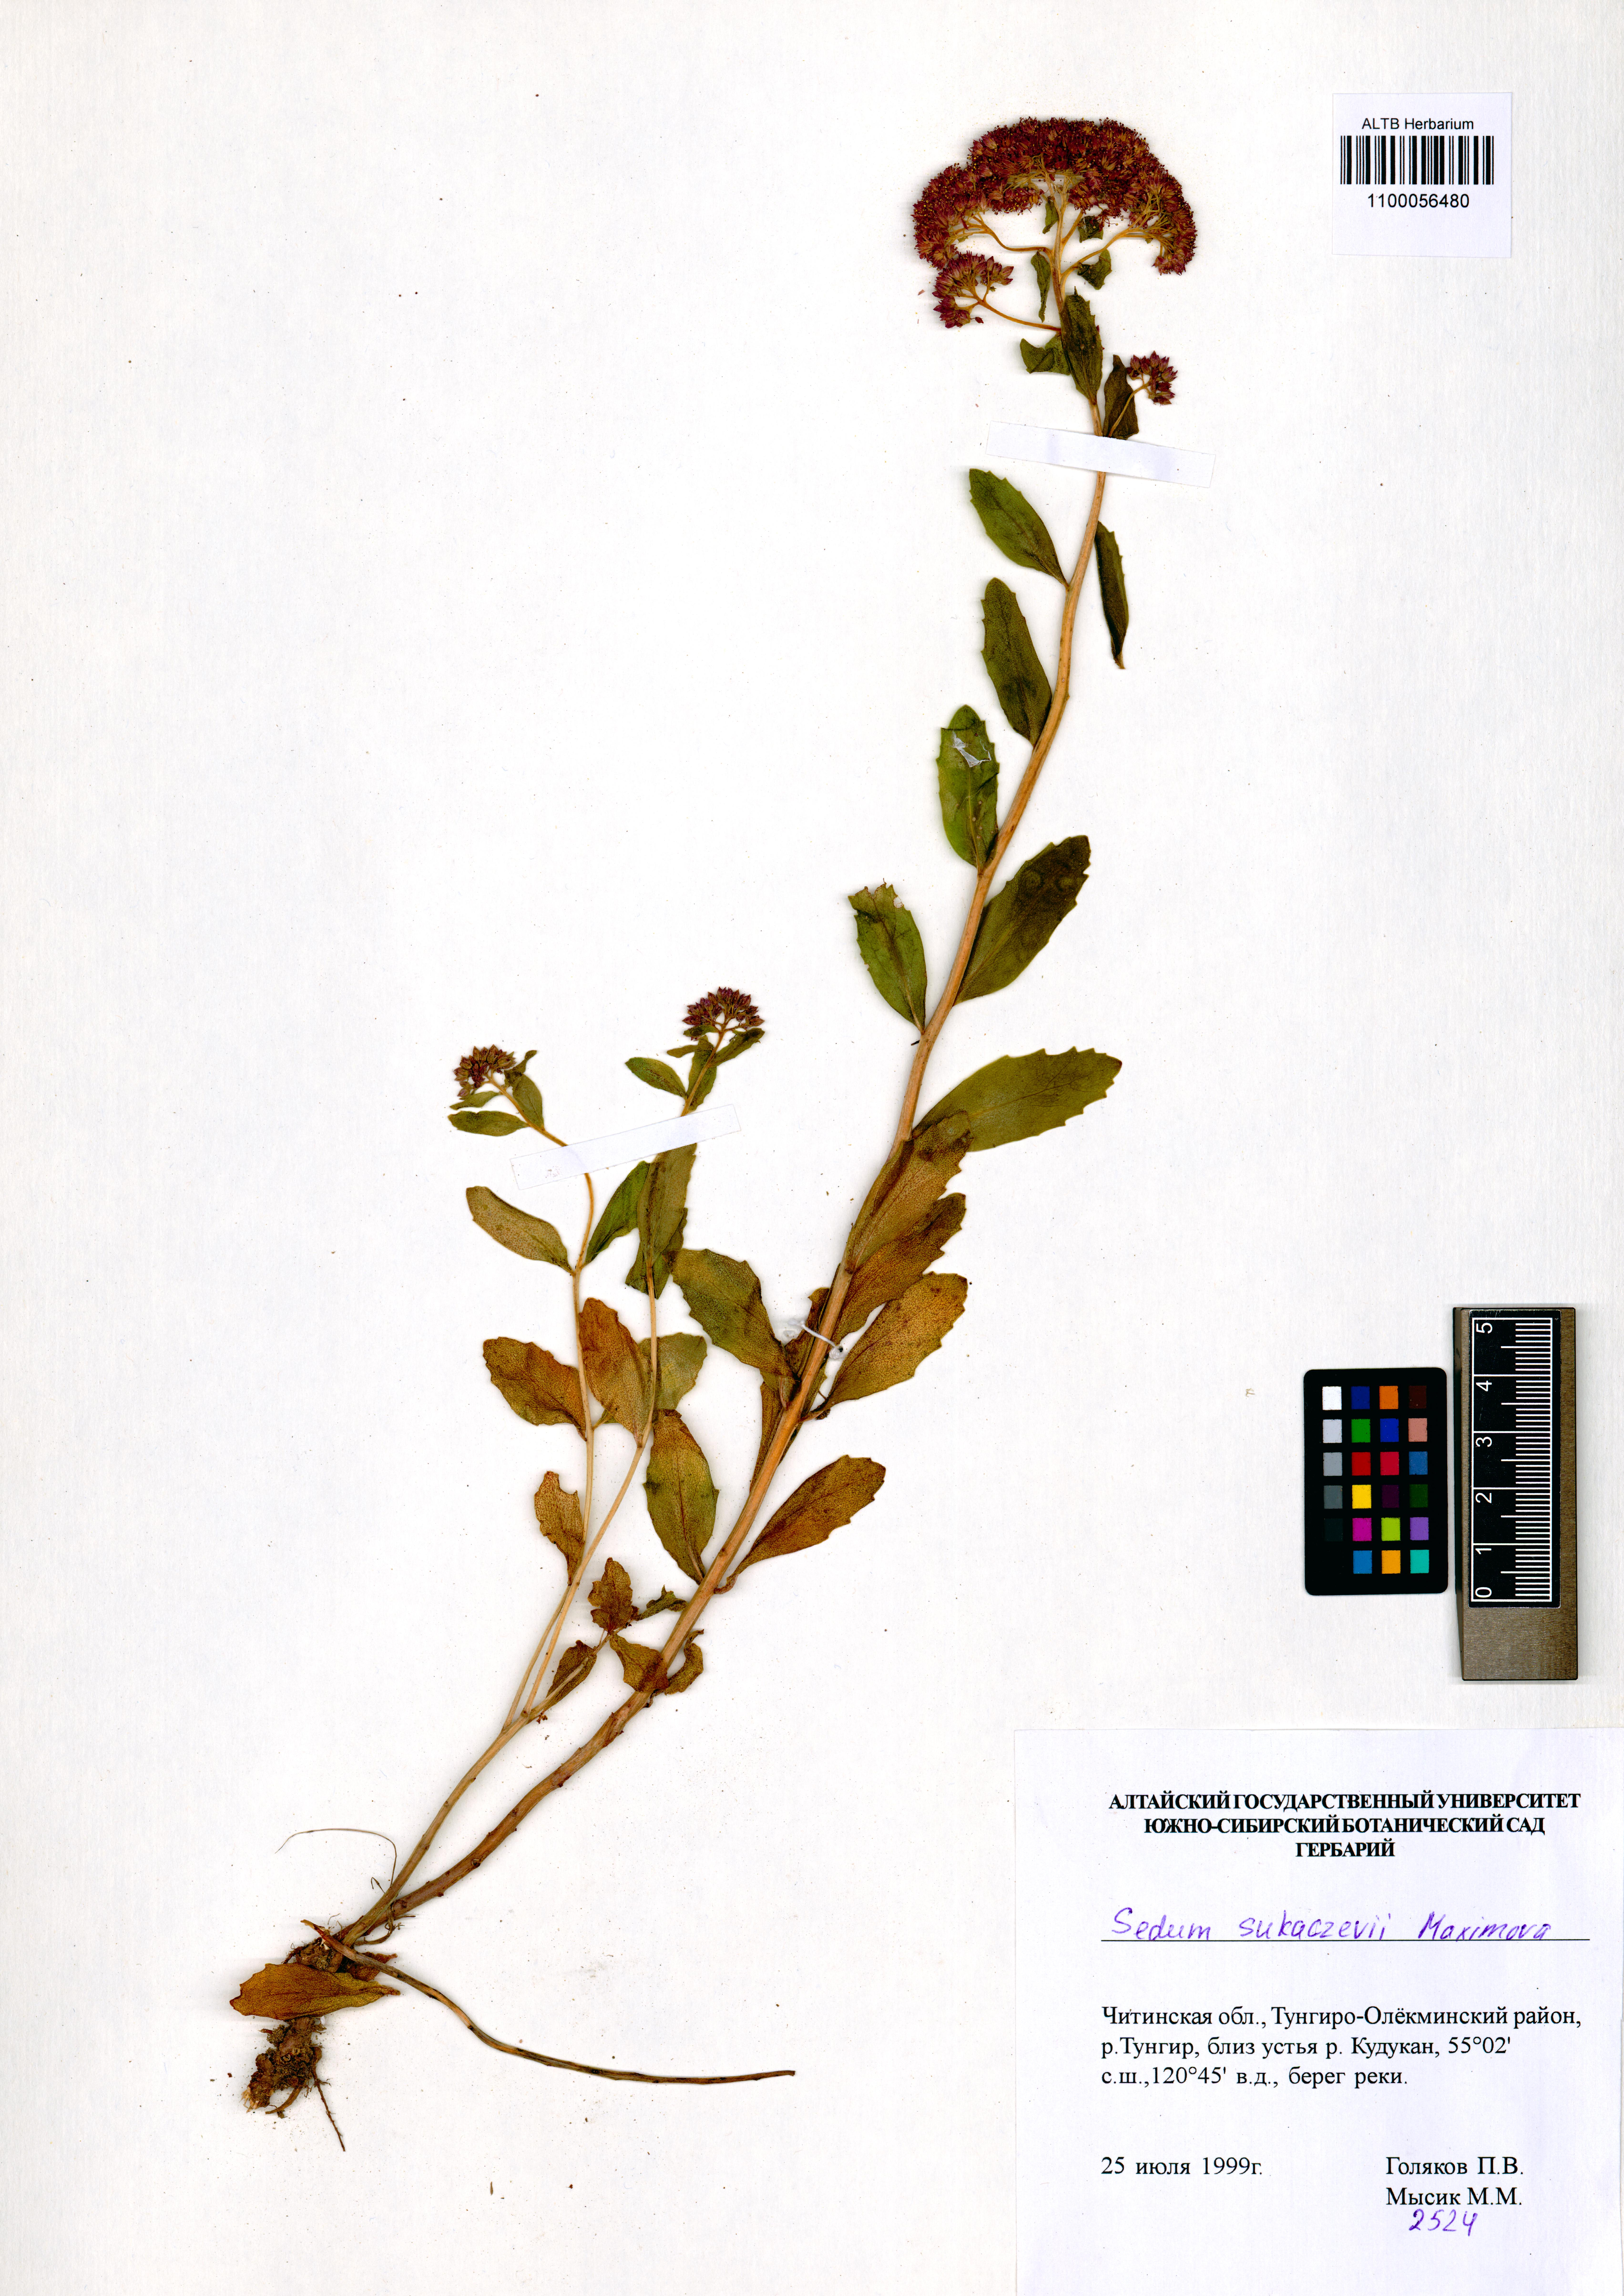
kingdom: Plantae
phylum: Tracheophyta
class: Magnoliopsida
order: Saxifragales
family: Crassulaceae
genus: Hylotelephium
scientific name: Hylotelephium pallescens
